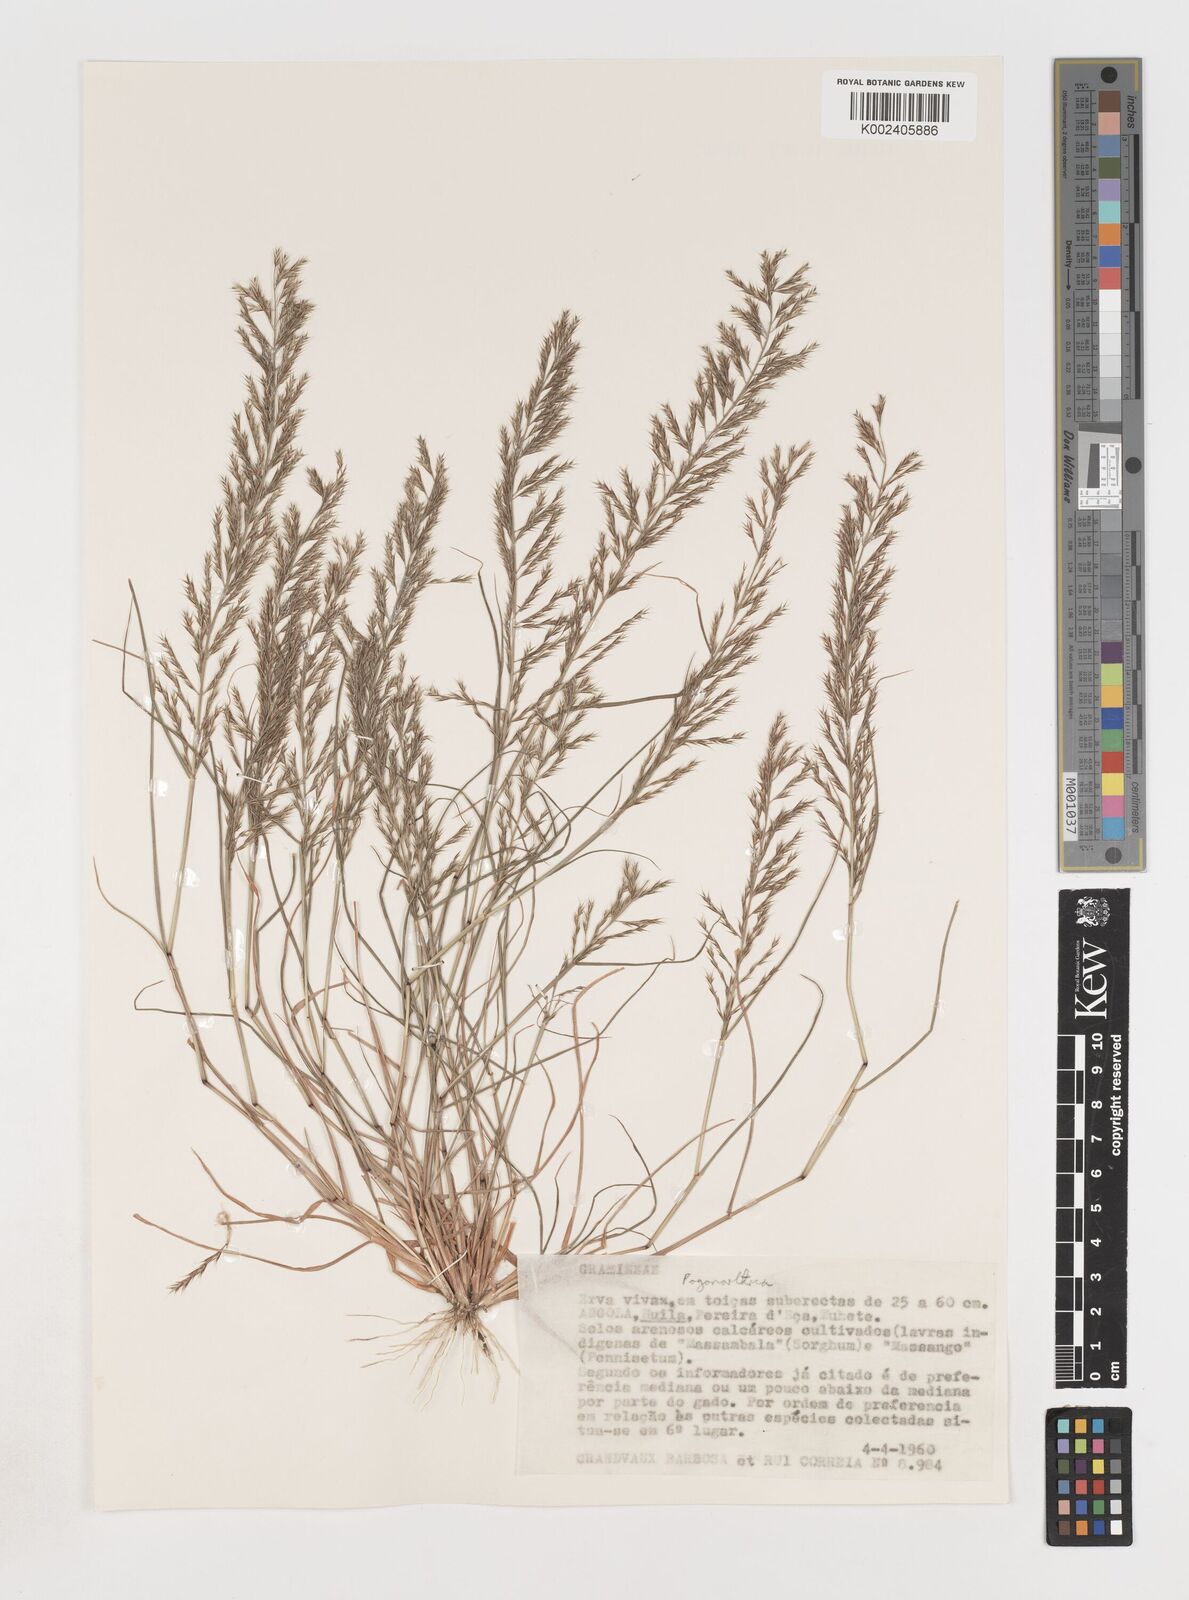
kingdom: Plantae
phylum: Tracheophyta
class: Liliopsida
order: Poales
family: Poaceae
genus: Pogonarthria
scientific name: Pogonarthria fleckii
